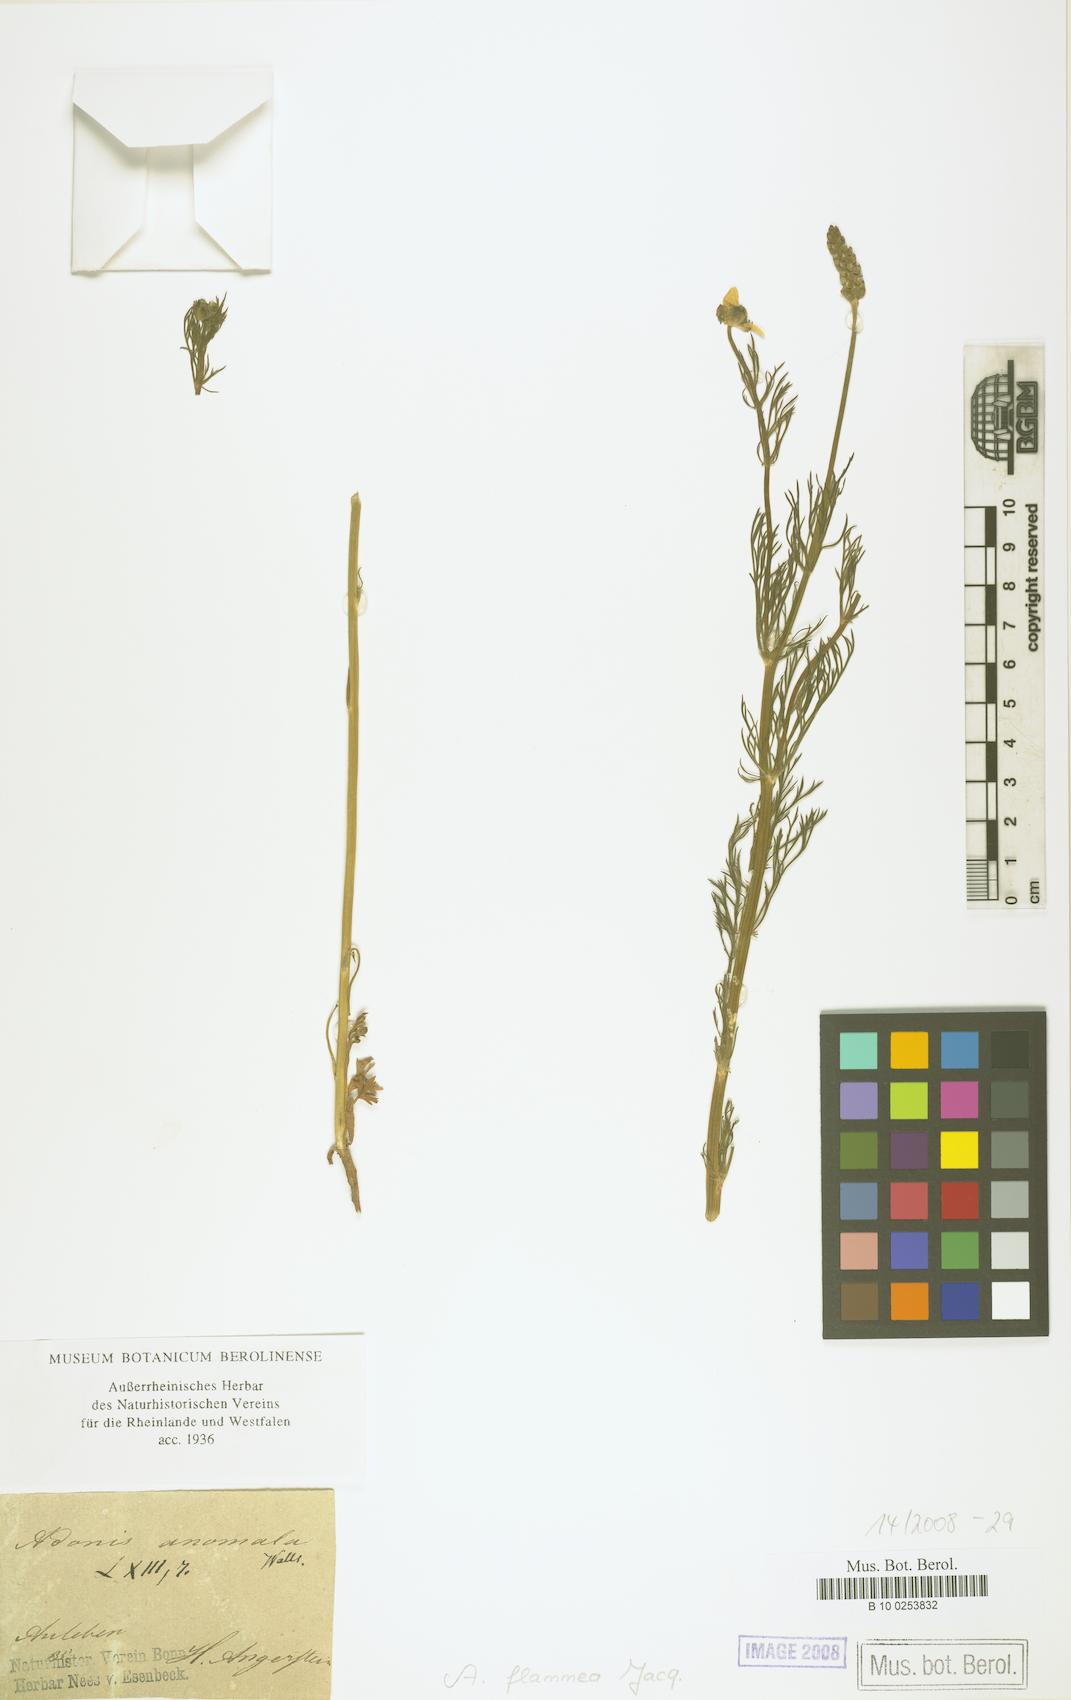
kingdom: Plantae
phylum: Tracheophyta
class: Magnoliopsida
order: Ranunculales
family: Ranunculaceae
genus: Adonis
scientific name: Adonis flammea
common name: Large pheasant's-eye
